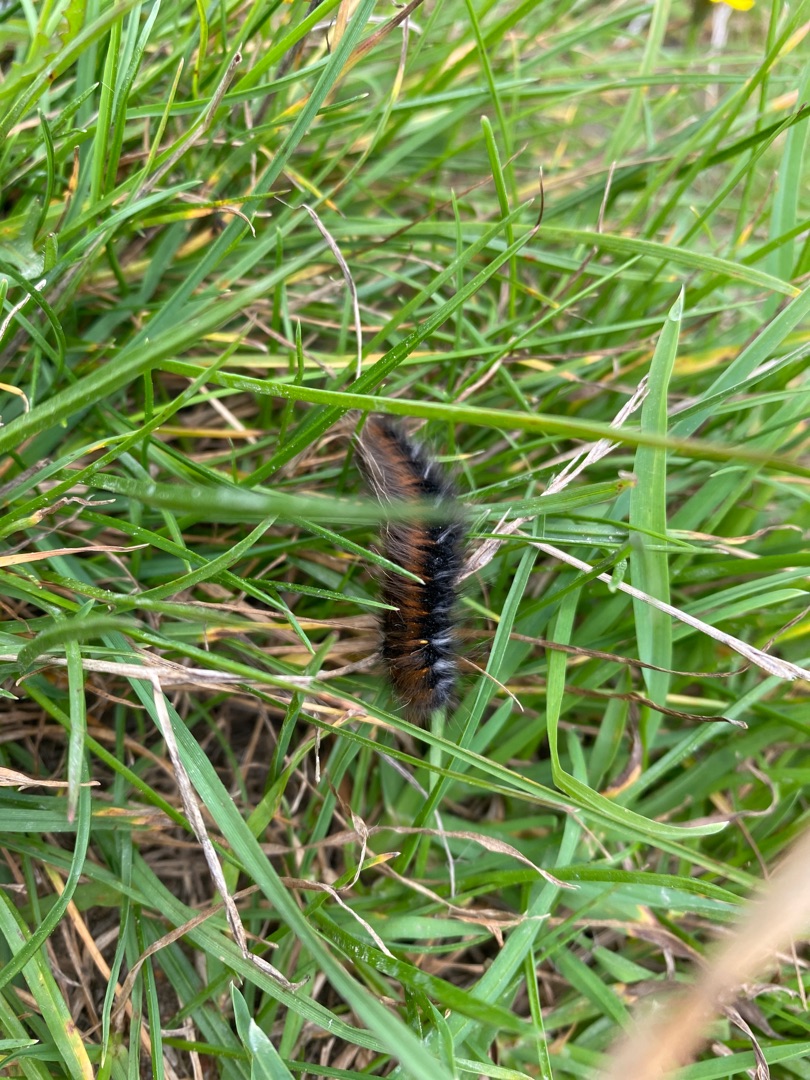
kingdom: Animalia
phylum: Arthropoda
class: Insecta
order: Lepidoptera
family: Lasiocampidae
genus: Macrothylacia
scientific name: Macrothylacia rubi
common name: Brombærspinder
